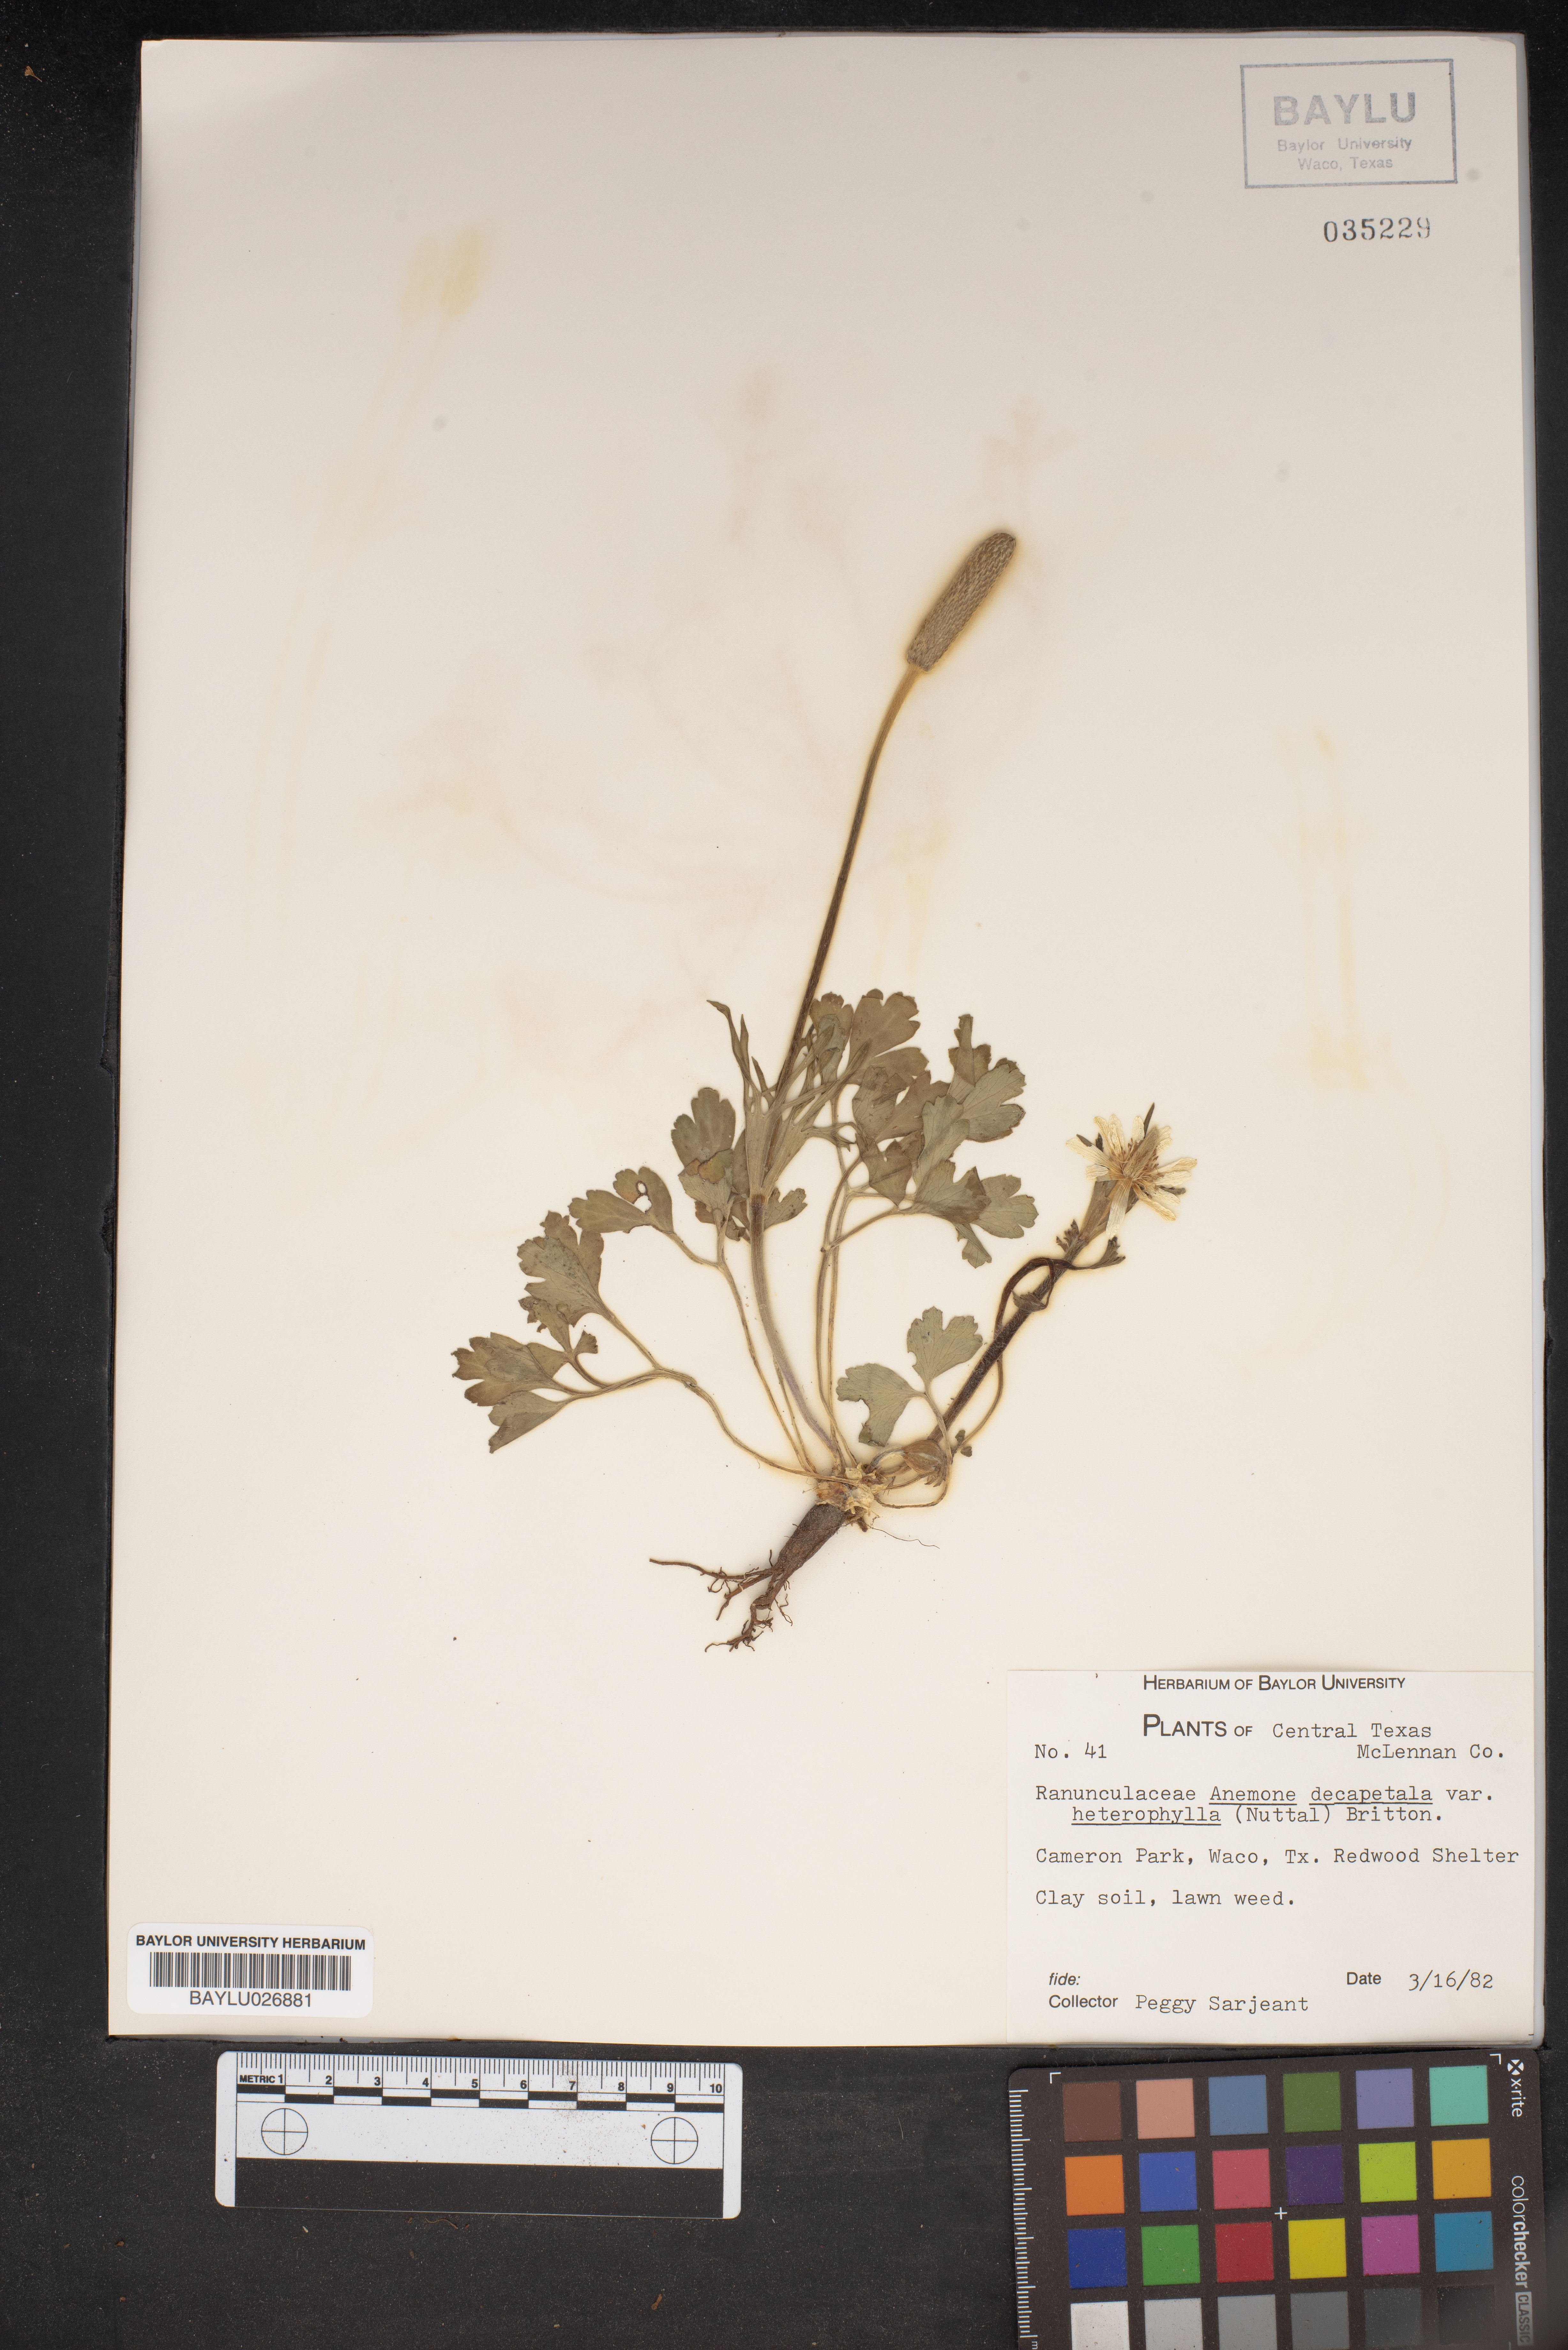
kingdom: Plantae
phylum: Tracheophyta
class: Magnoliopsida
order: Ranunculales
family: Ranunculaceae
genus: Anemone
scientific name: Anemone berlandieri
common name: Ten-petal anemone
